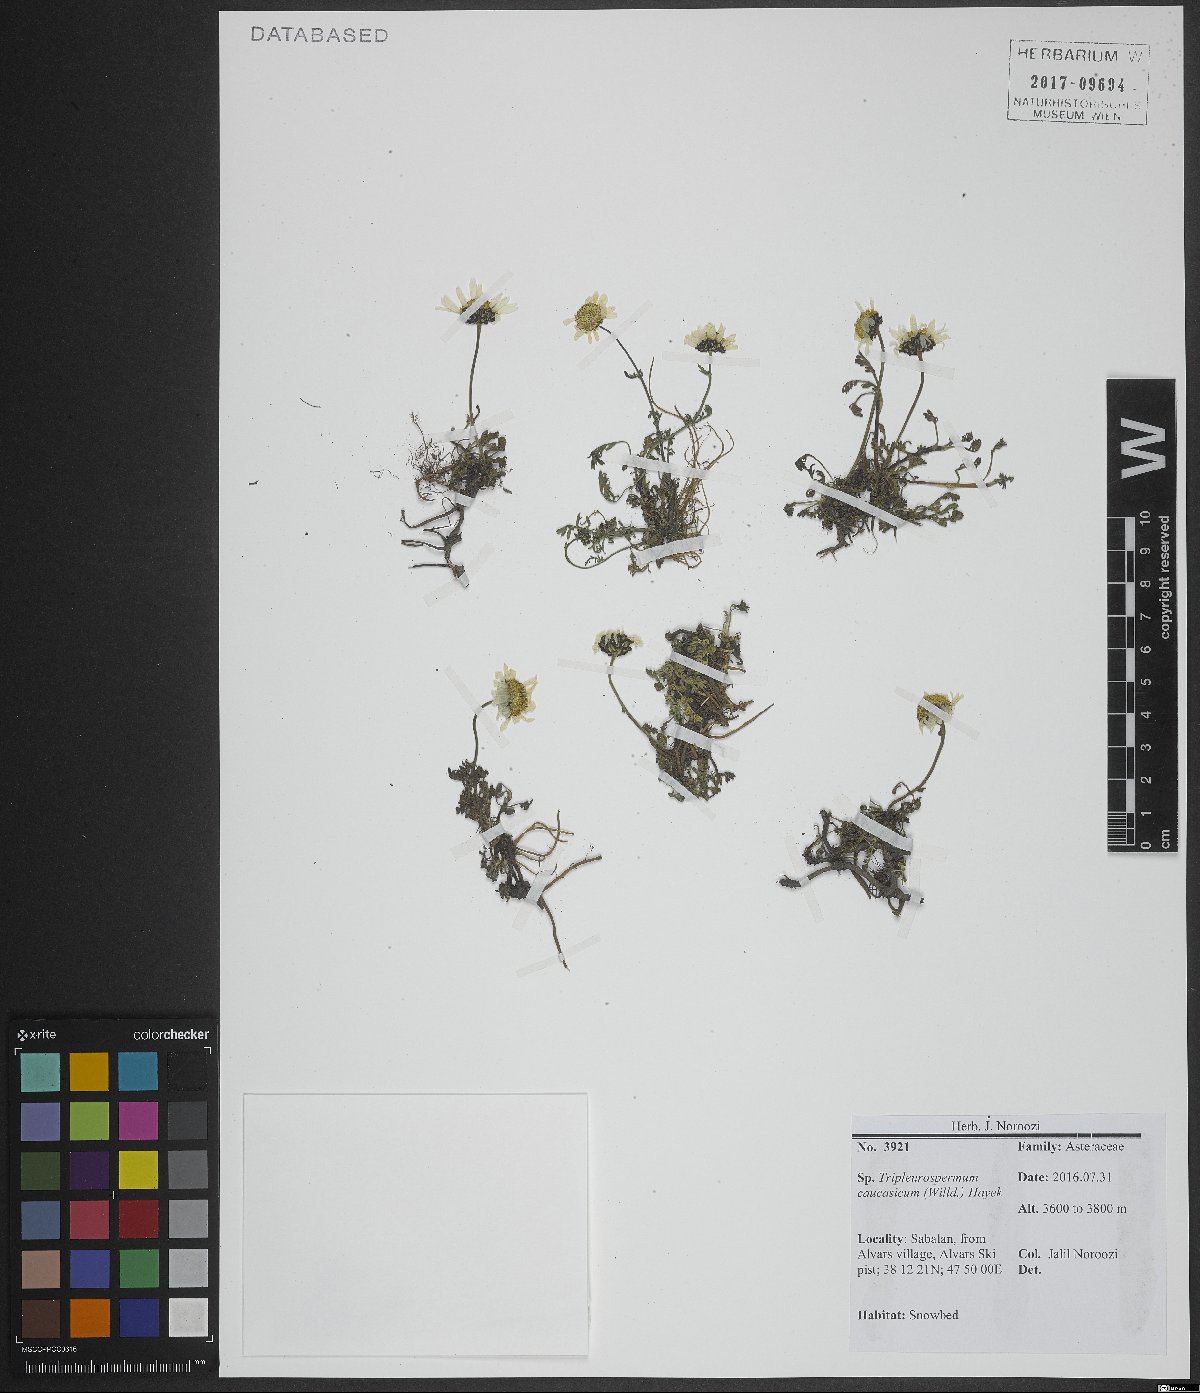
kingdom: Plantae
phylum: Tracheophyta
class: Magnoliopsida
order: Asterales
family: Asteraceae
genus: Tripleurospermum
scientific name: Tripleurospermum caucasicum
